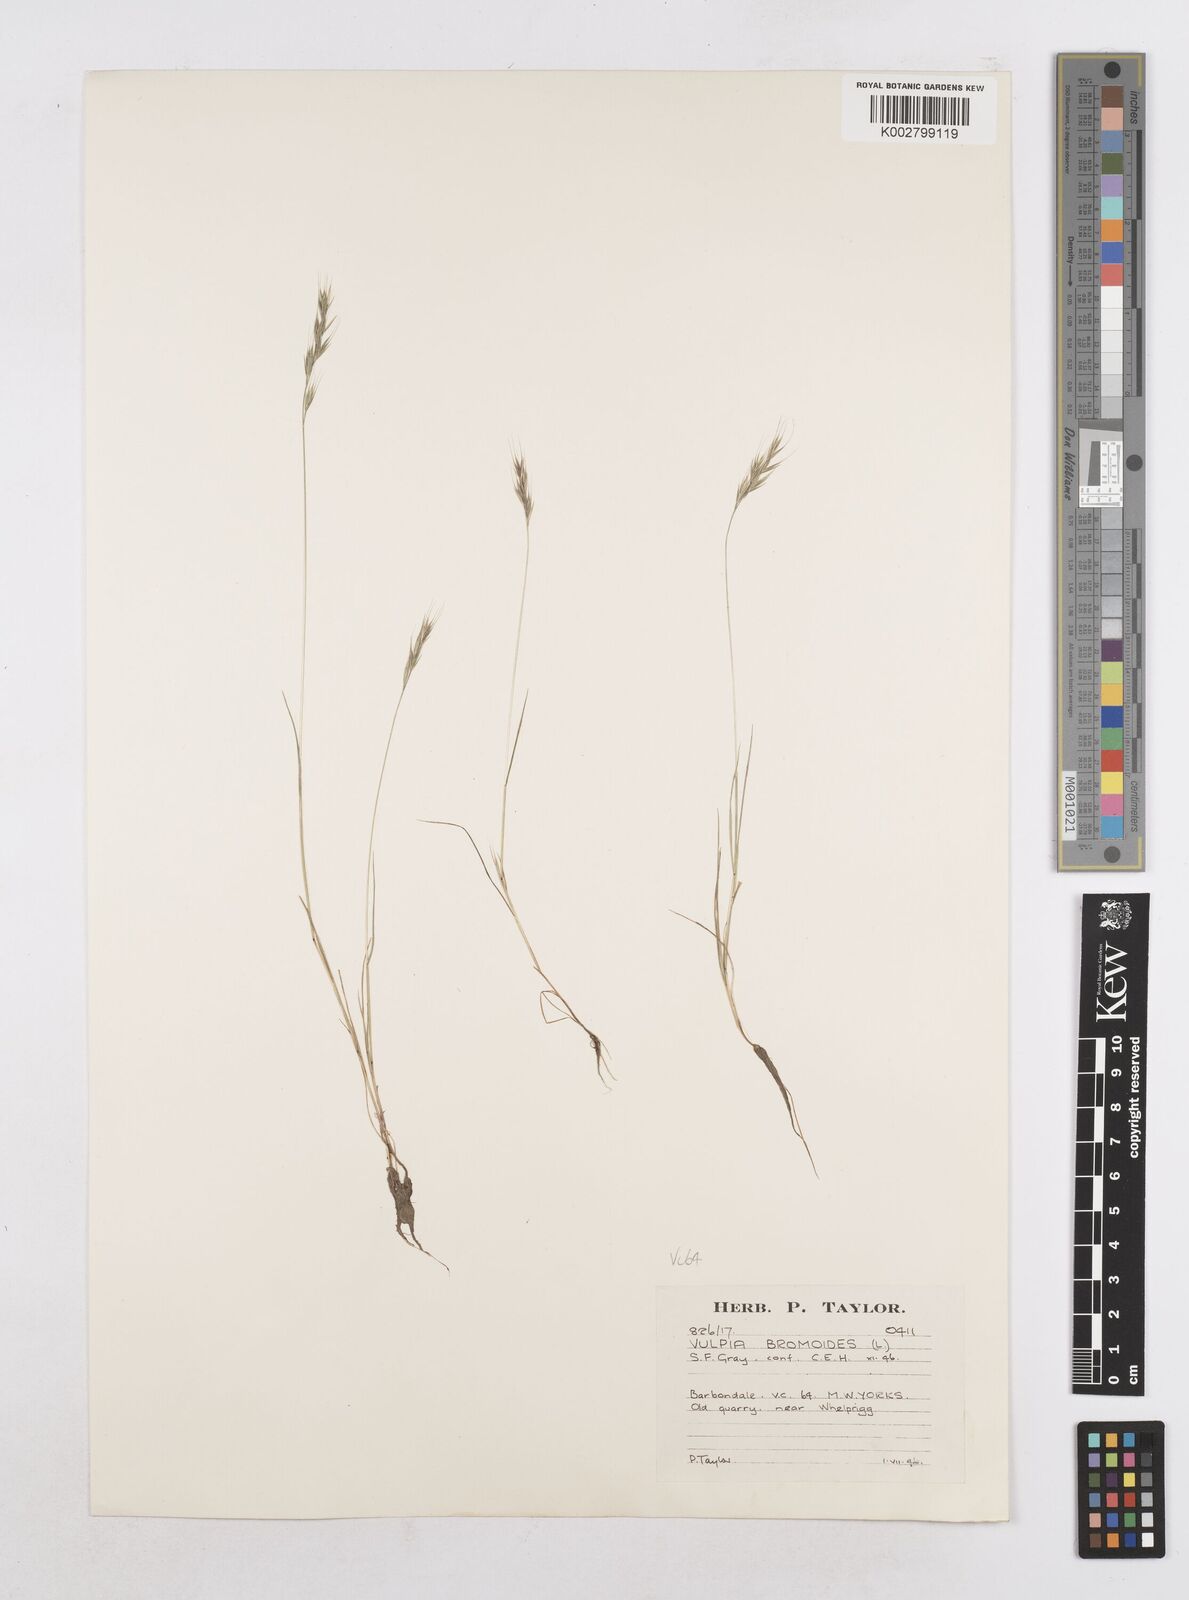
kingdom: Plantae
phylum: Tracheophyta
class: Liliopsida
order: Poales
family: Poaceae
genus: Festuca
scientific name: Festuca bromoides
